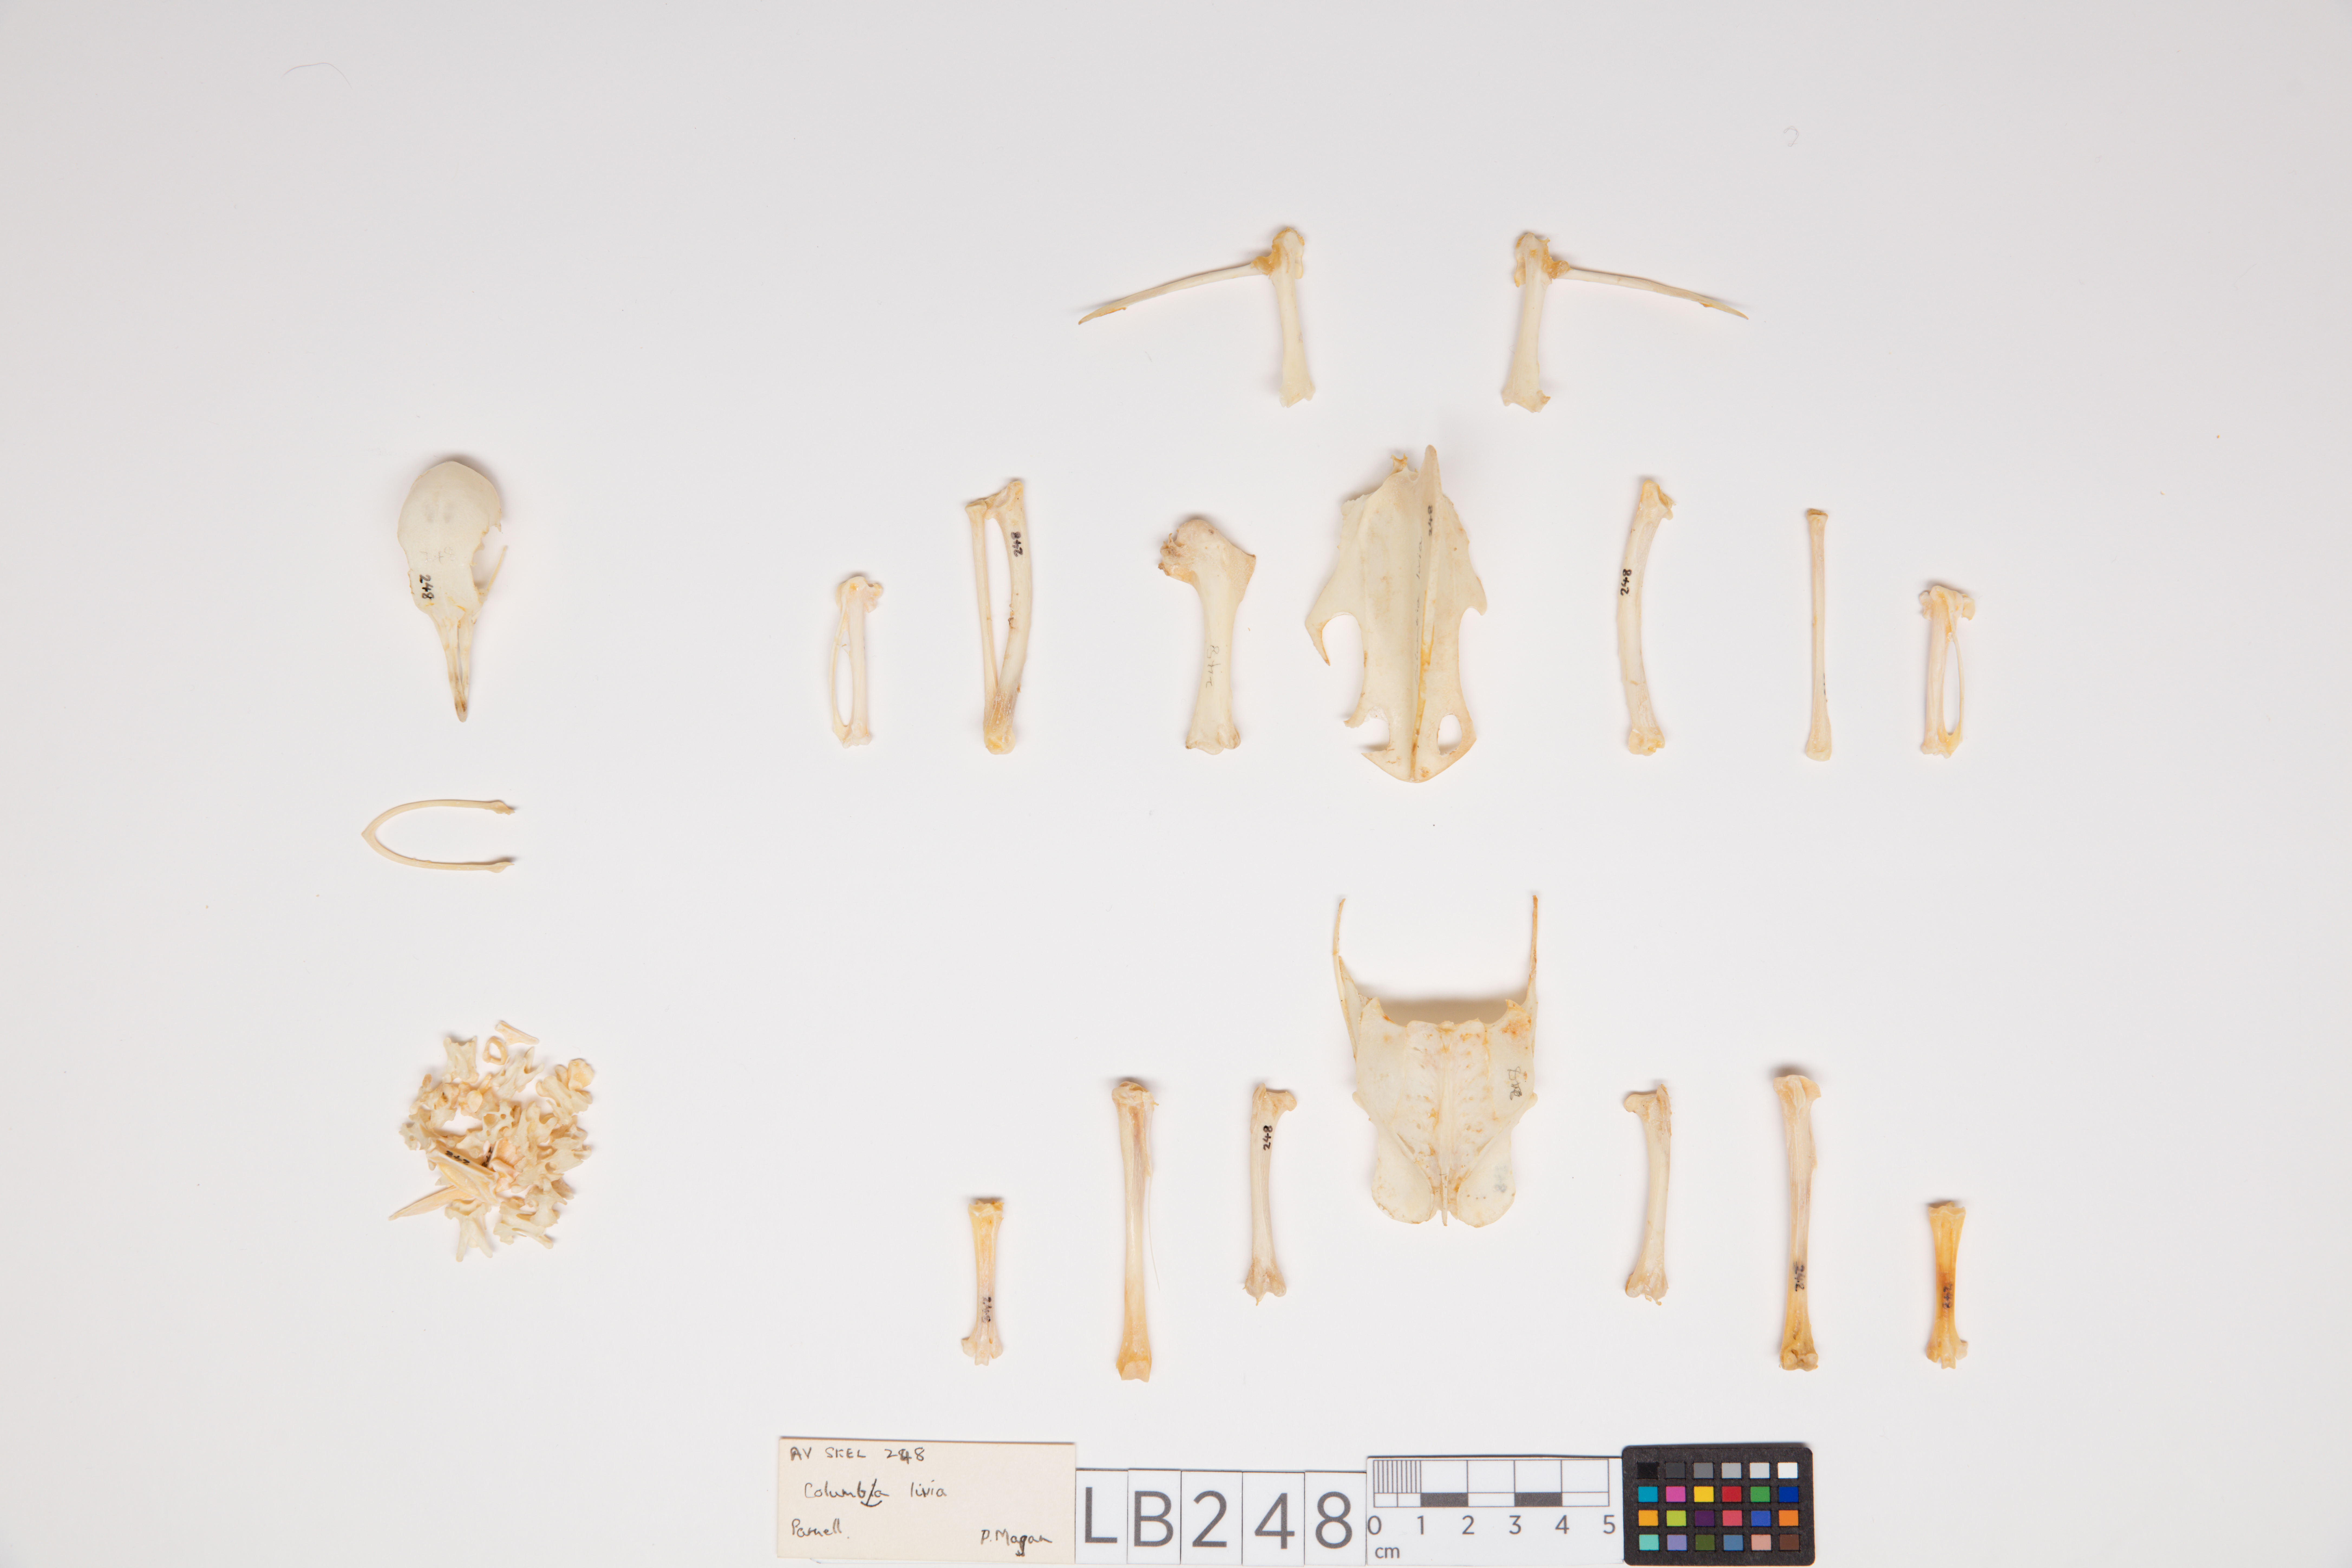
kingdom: Animalia
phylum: Chordata
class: Aves
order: Columbiformes
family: Columbidae
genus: Columba
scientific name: Columba livia
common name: Rock pigeon
